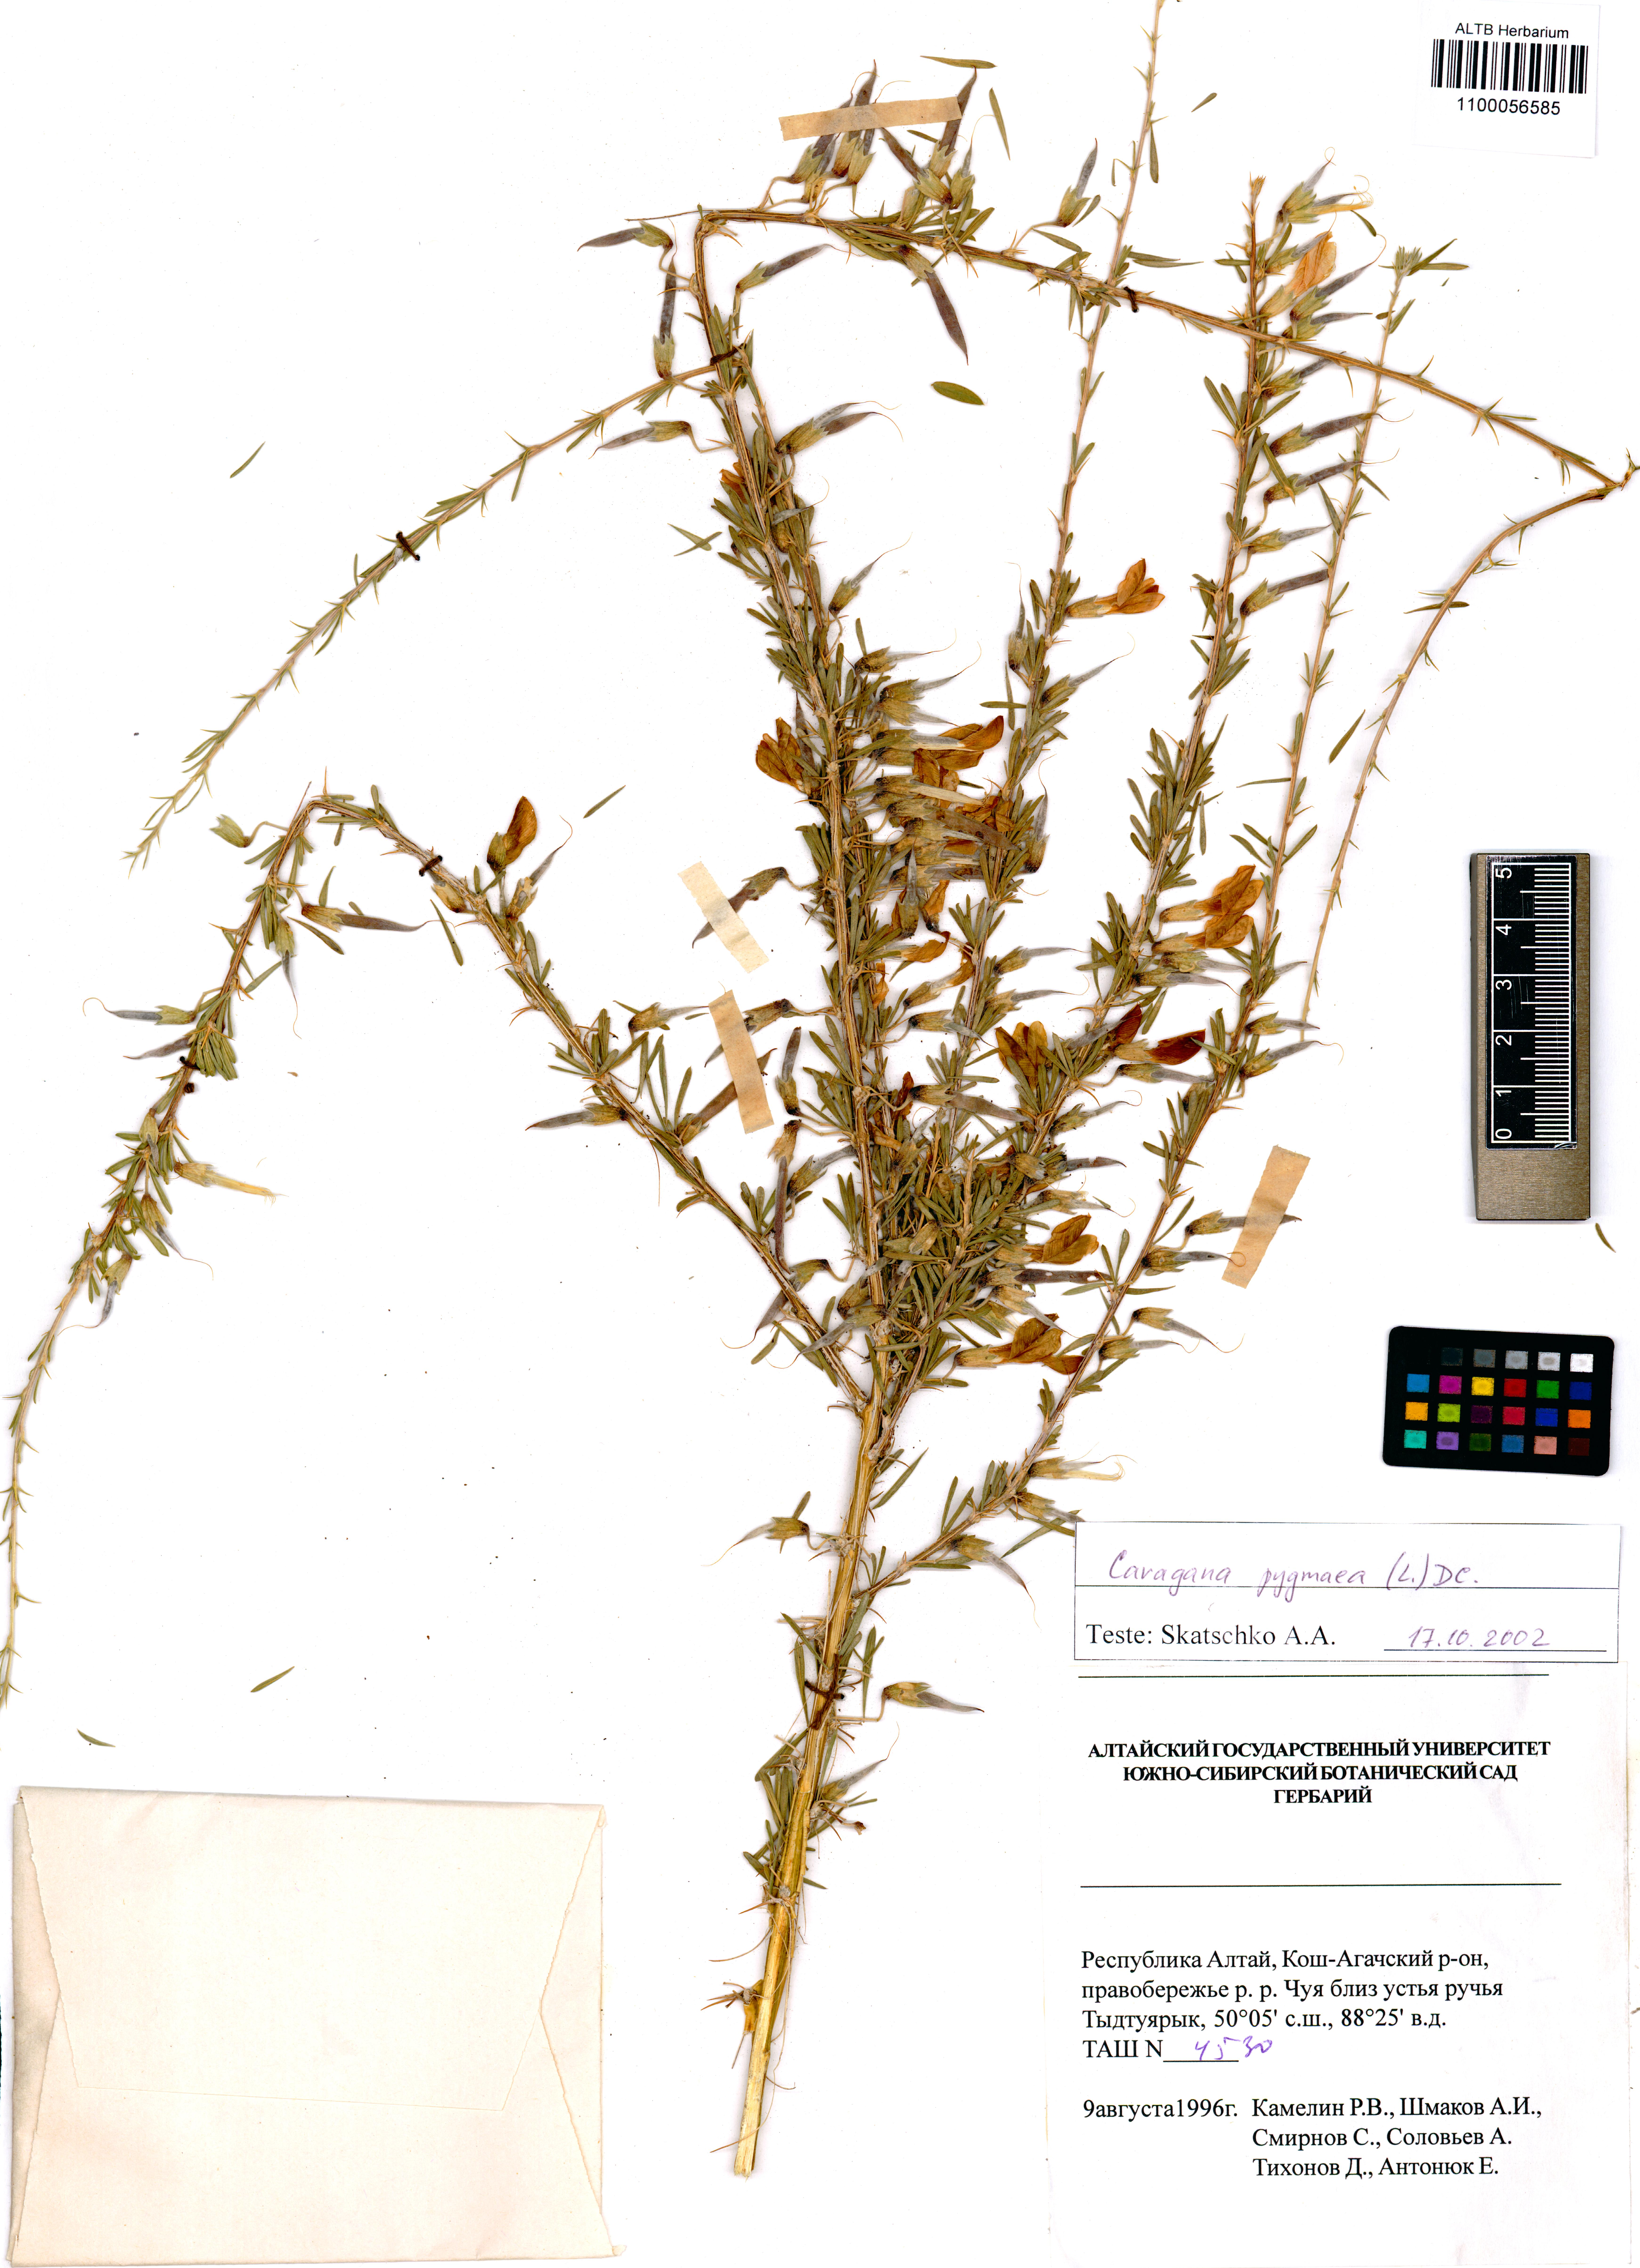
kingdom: Plantae
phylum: Tracheophyta
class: Magnoliopsida
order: Fabales
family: Fabaceae
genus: Caragana
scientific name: Caragana pygmaea
